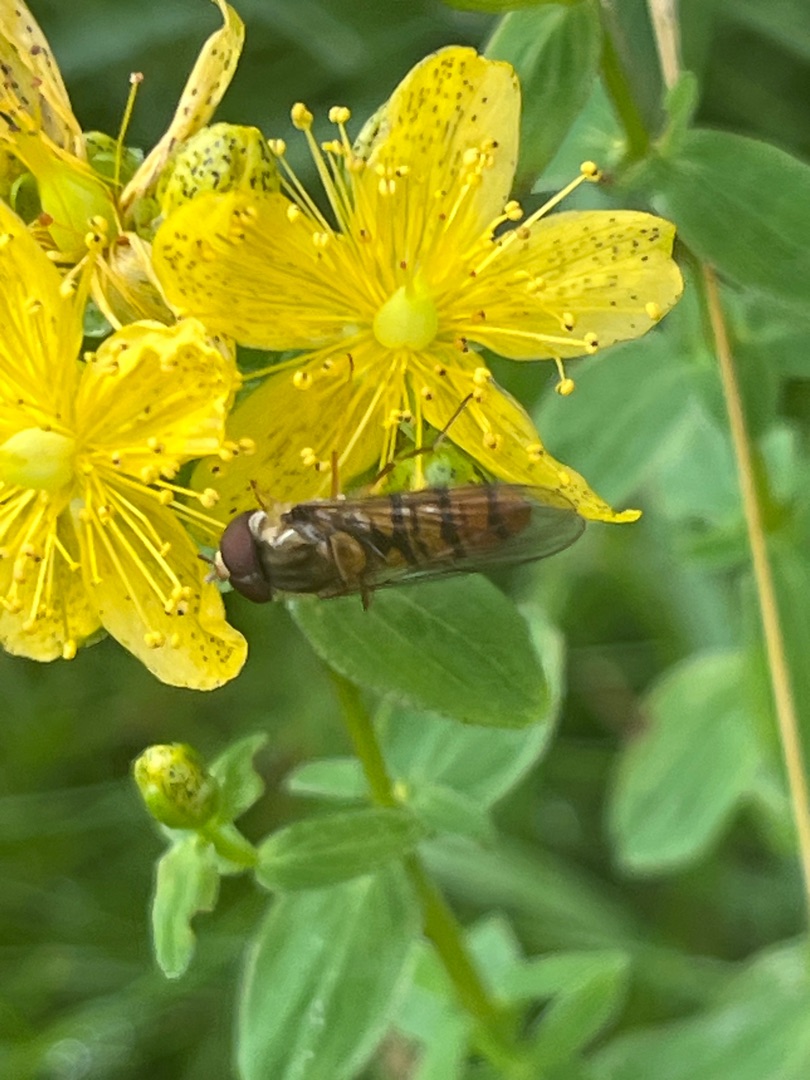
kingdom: Animalia
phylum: Arthropoda
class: Insecta
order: Diptera
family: Syrphidae
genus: Episyrphus
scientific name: Episyrphus balteatus
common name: Dobbeltbåndet svirreflue
